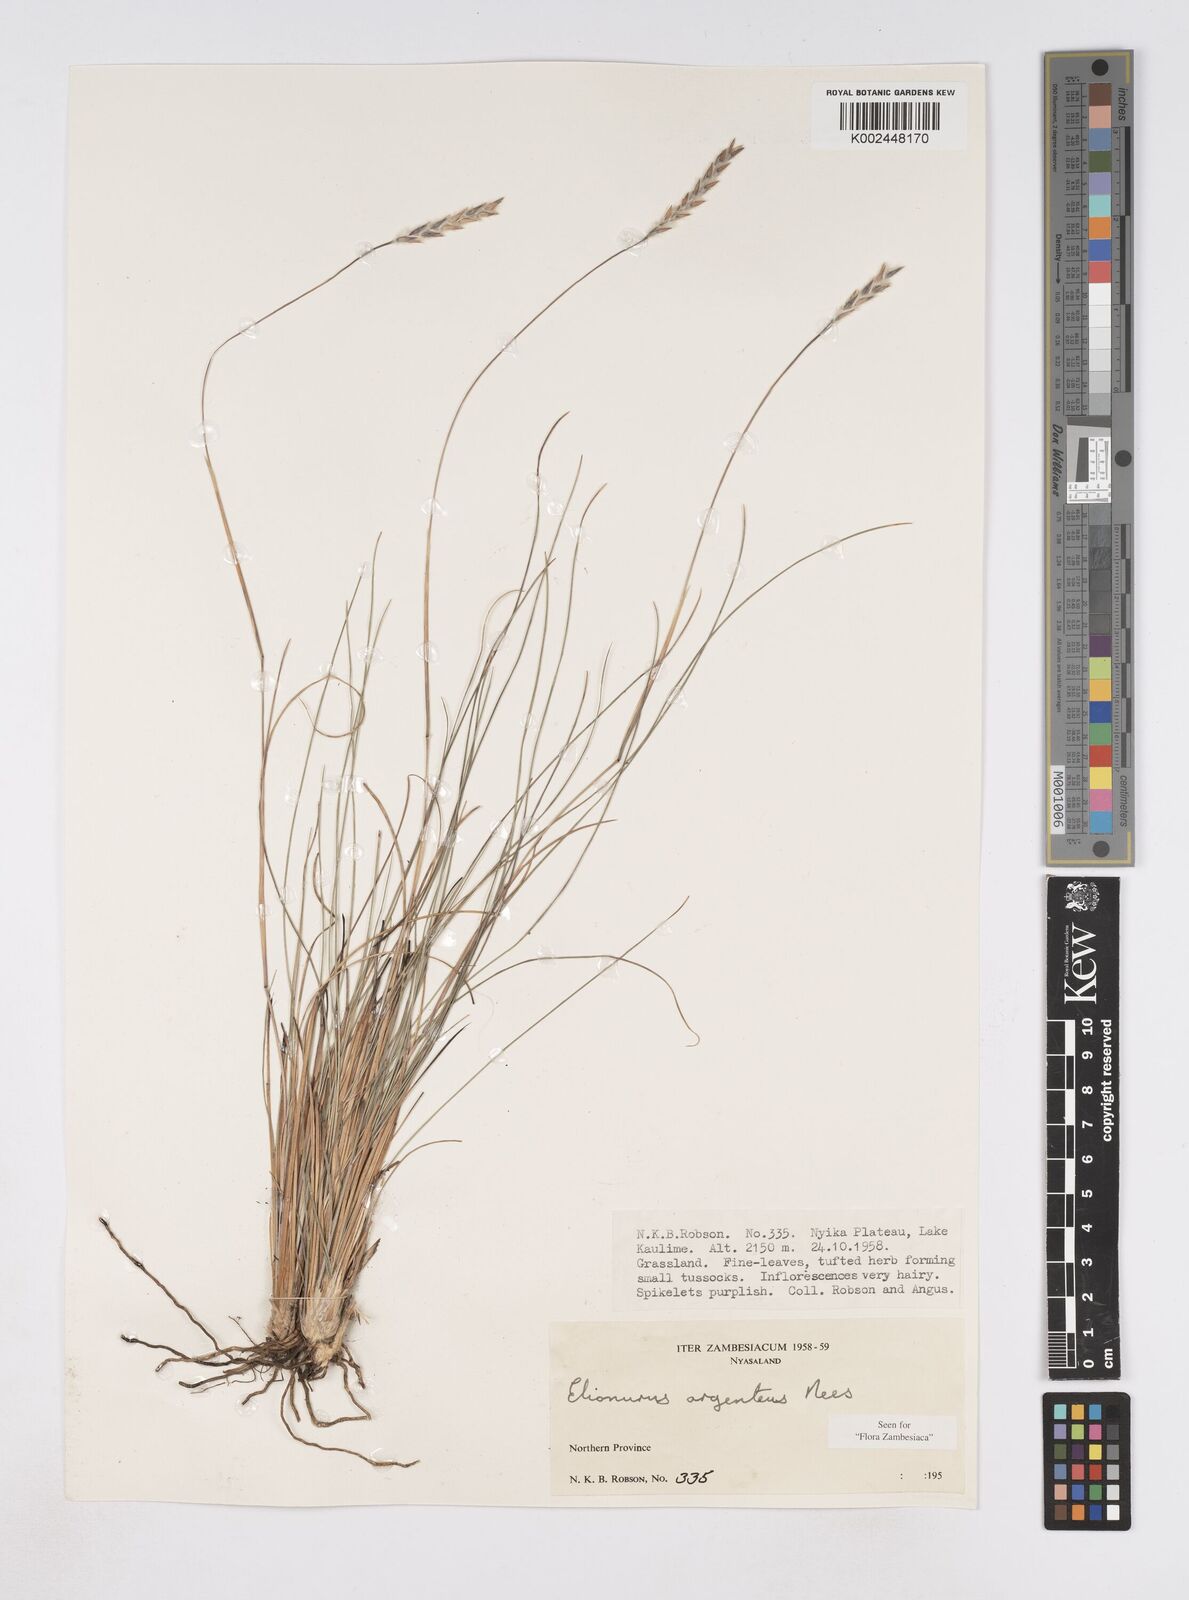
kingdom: Plantae
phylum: Tracheophyta
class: Liliopsida
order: Poales
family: Poaceae
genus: Elionurus
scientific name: Elionurus muticus
